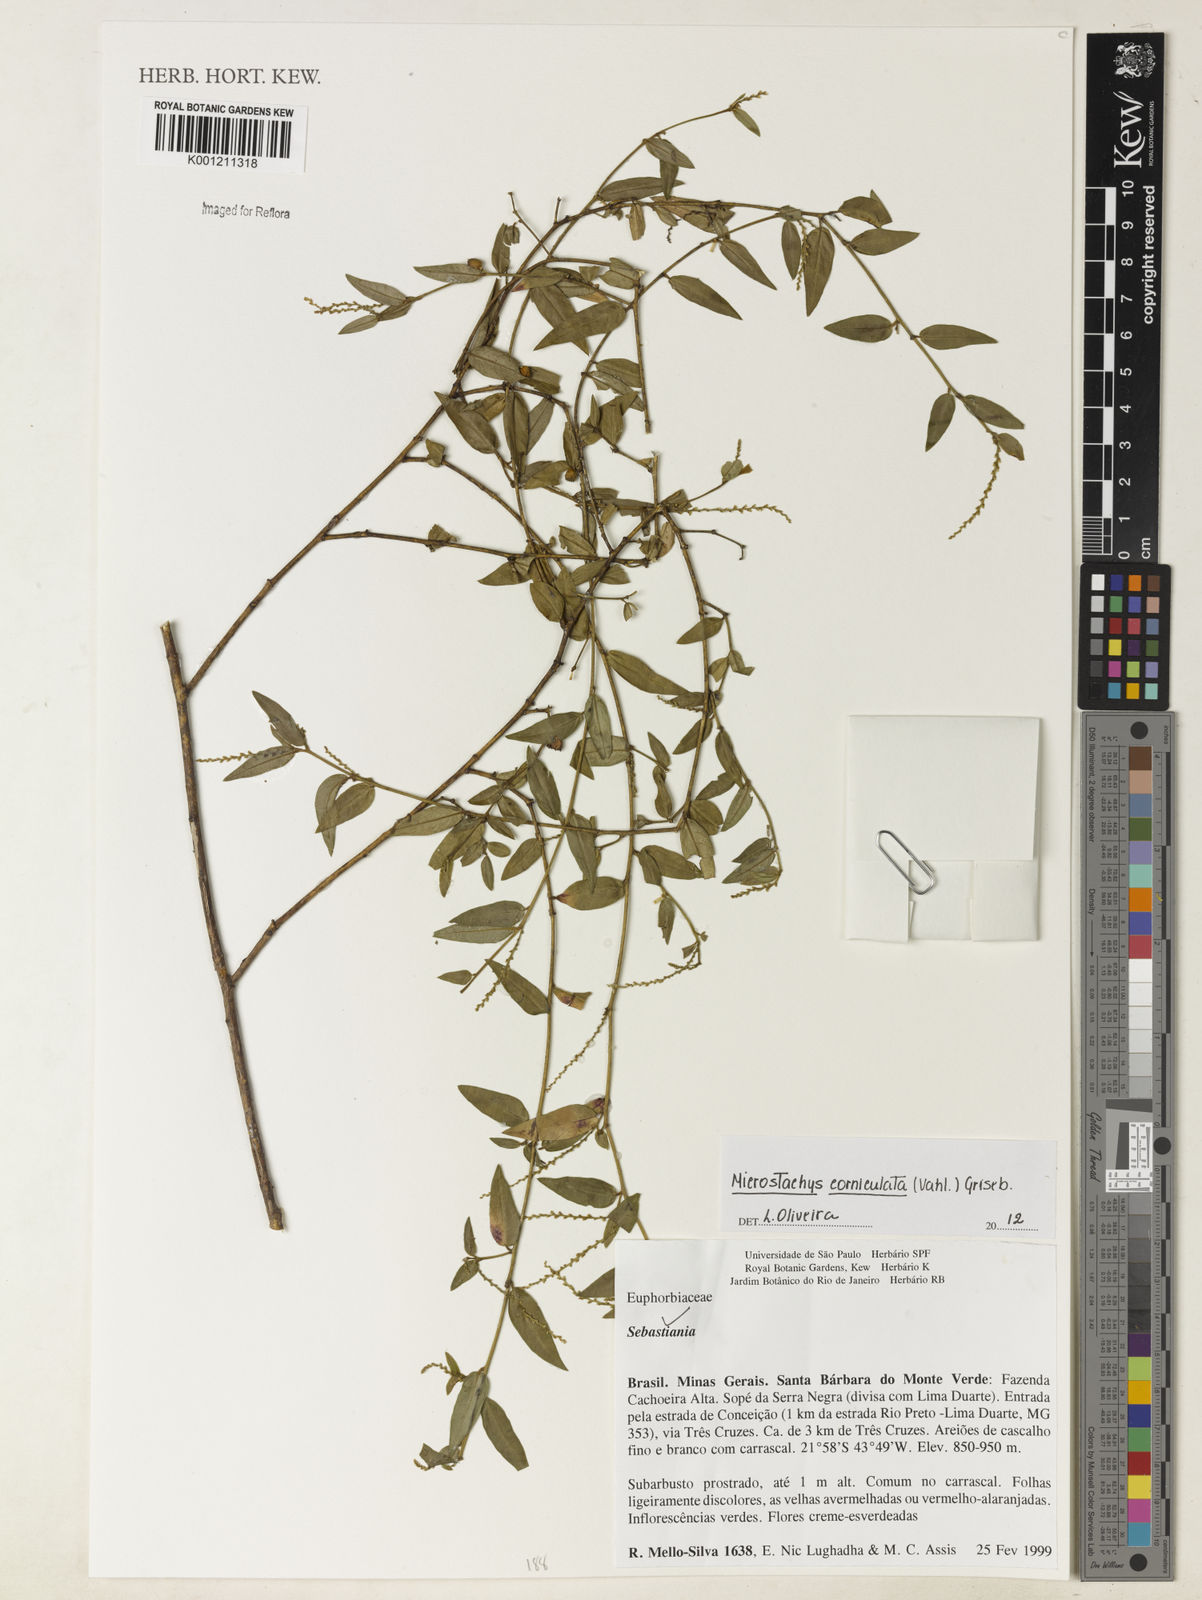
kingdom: Plantae
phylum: Tracheophyta
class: Magnoliopsida
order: Malpighiales
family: Euphorbiaceae
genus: Microstachys
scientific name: Microstachys corniculata
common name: Hato tejas
